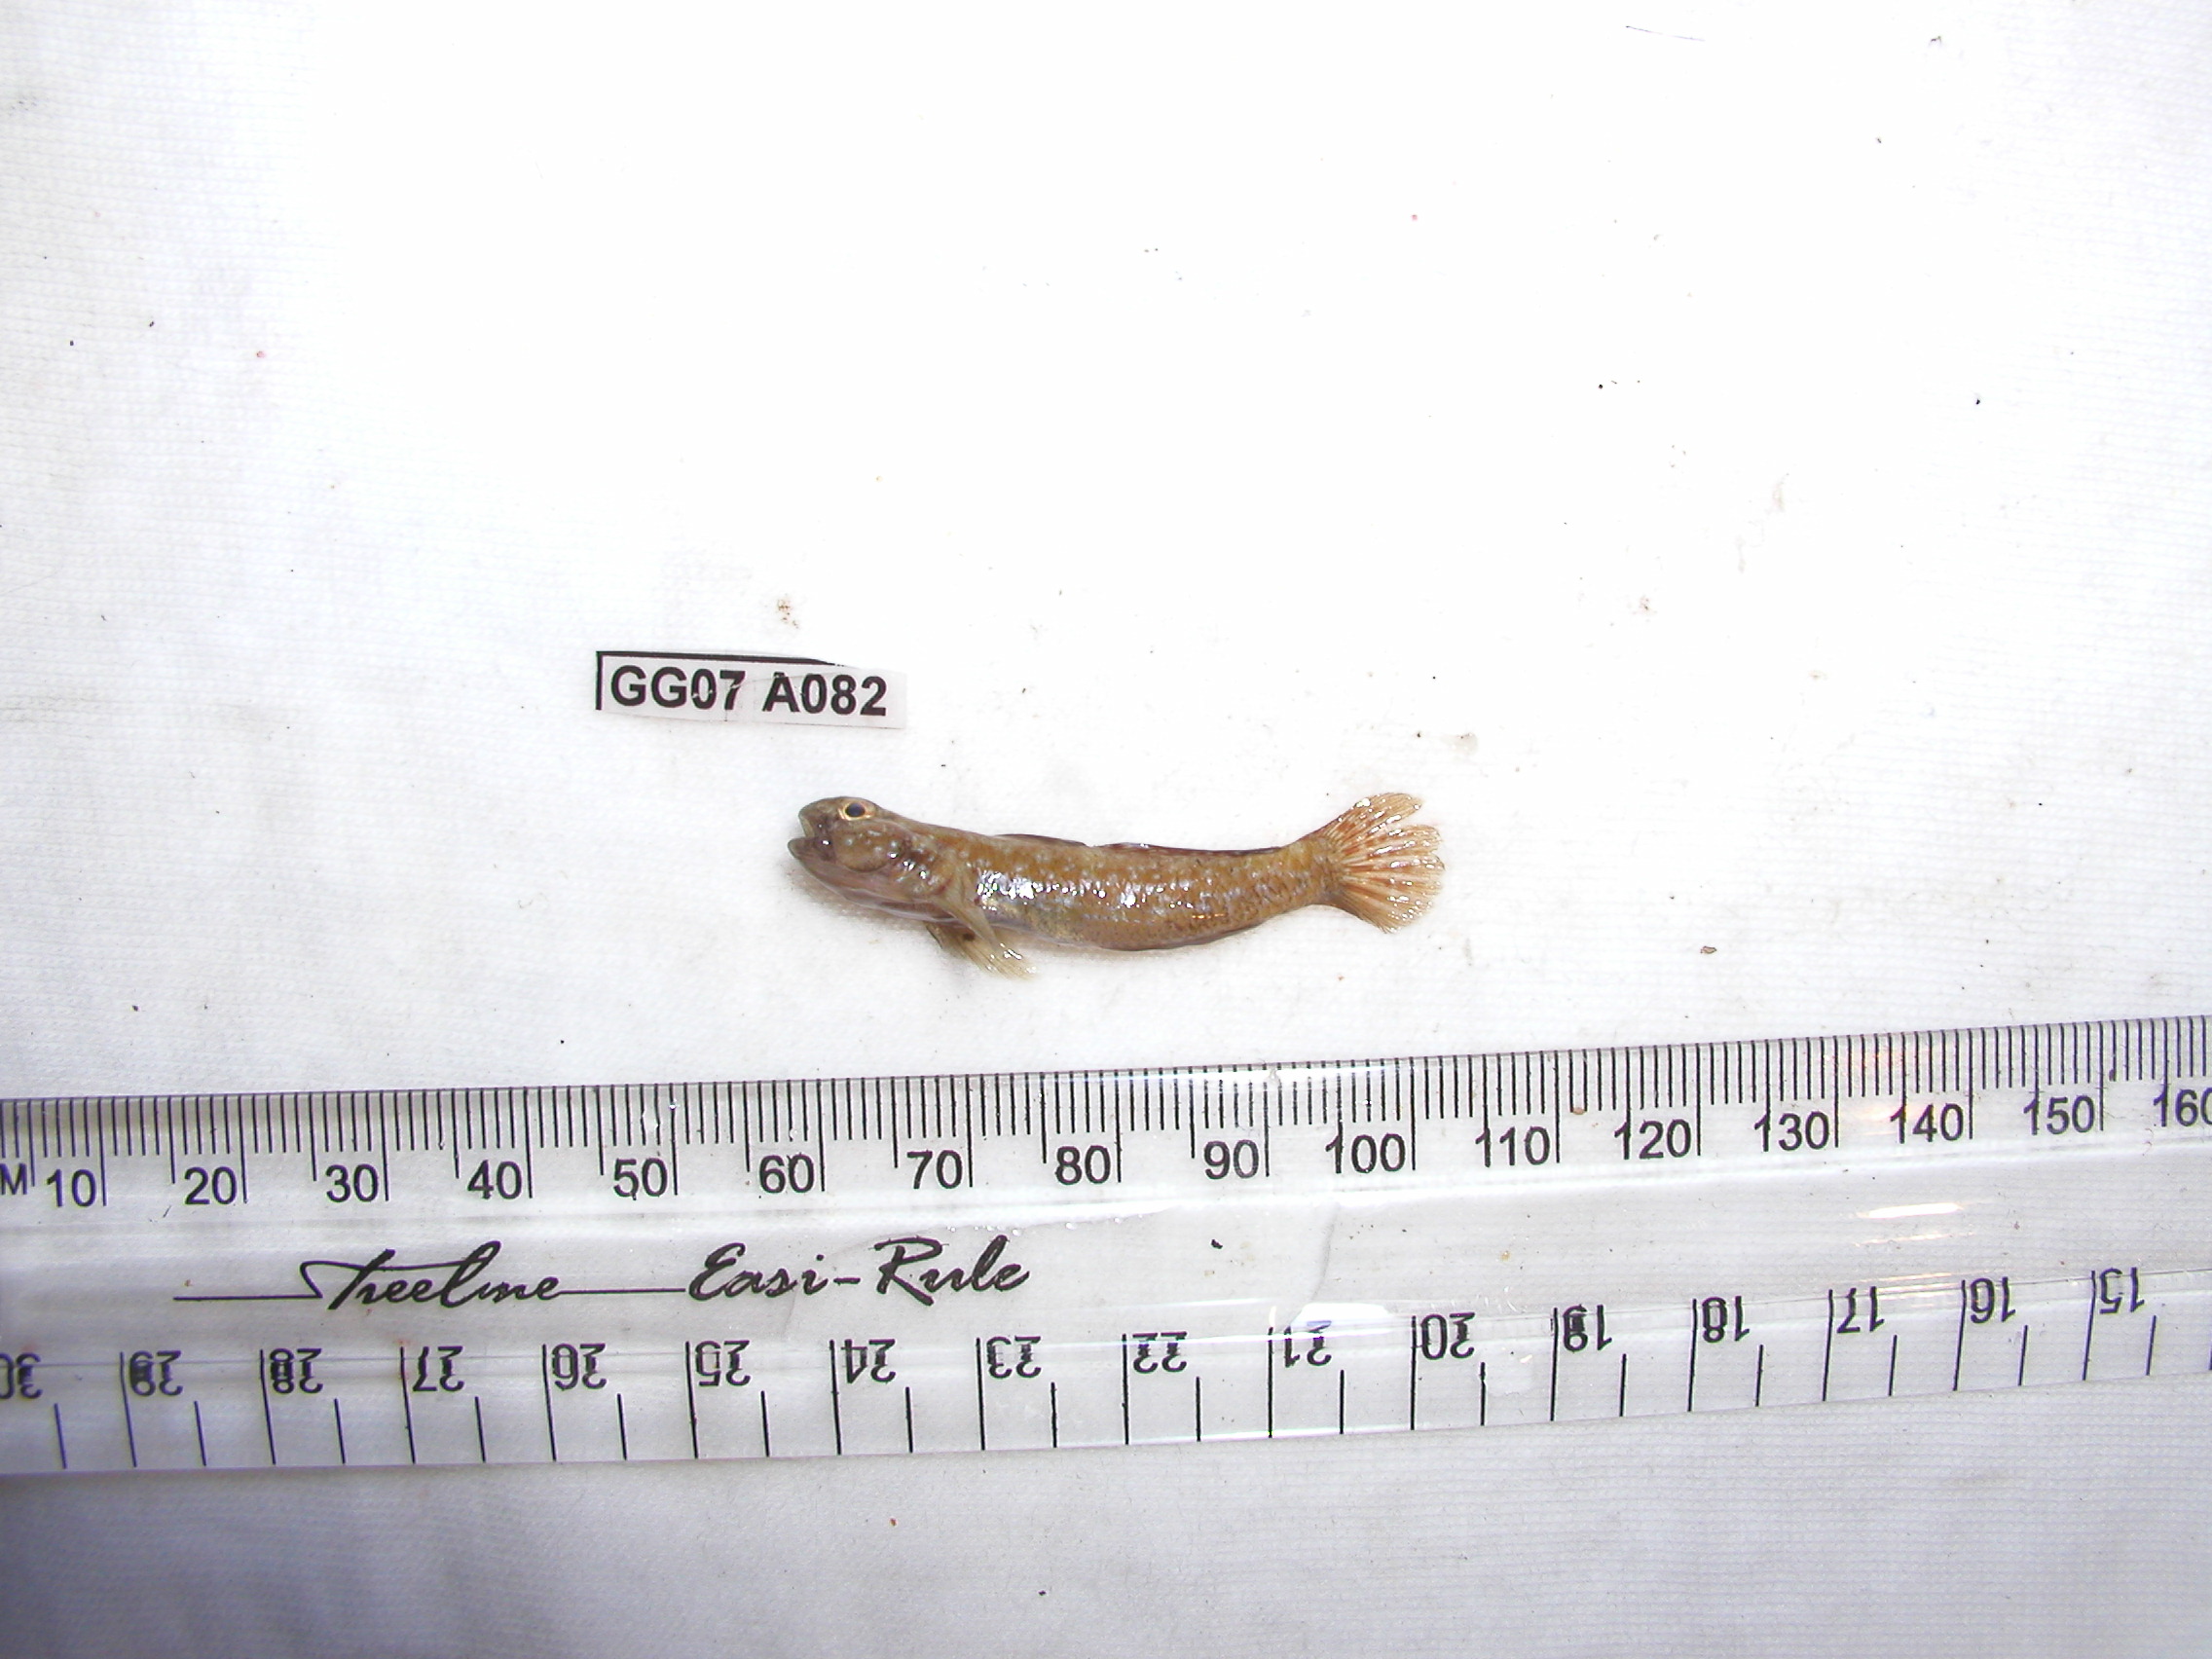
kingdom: Animalia
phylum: Chordata
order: Perciformes
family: Gobiidae
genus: Caffrogobius
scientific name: Caffrogobius natalensis
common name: Baldy
